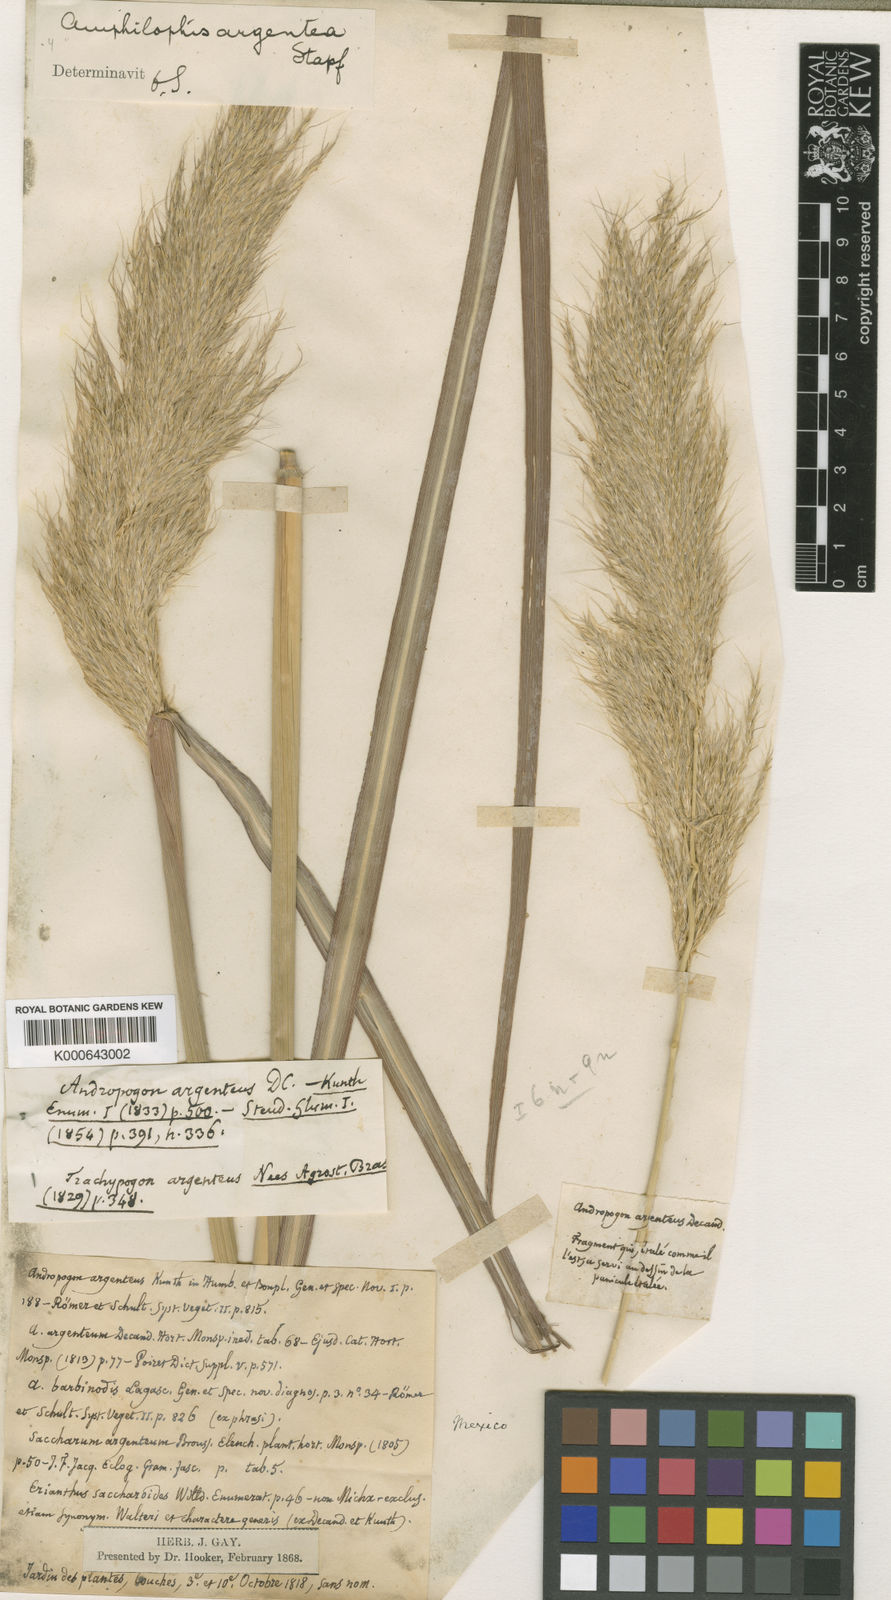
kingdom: Plantae
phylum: Tracheophyta
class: Liliopsida
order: Poales
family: Poaceae
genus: Bothriochloa
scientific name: Bothriochloa alta
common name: Tall bluestem
